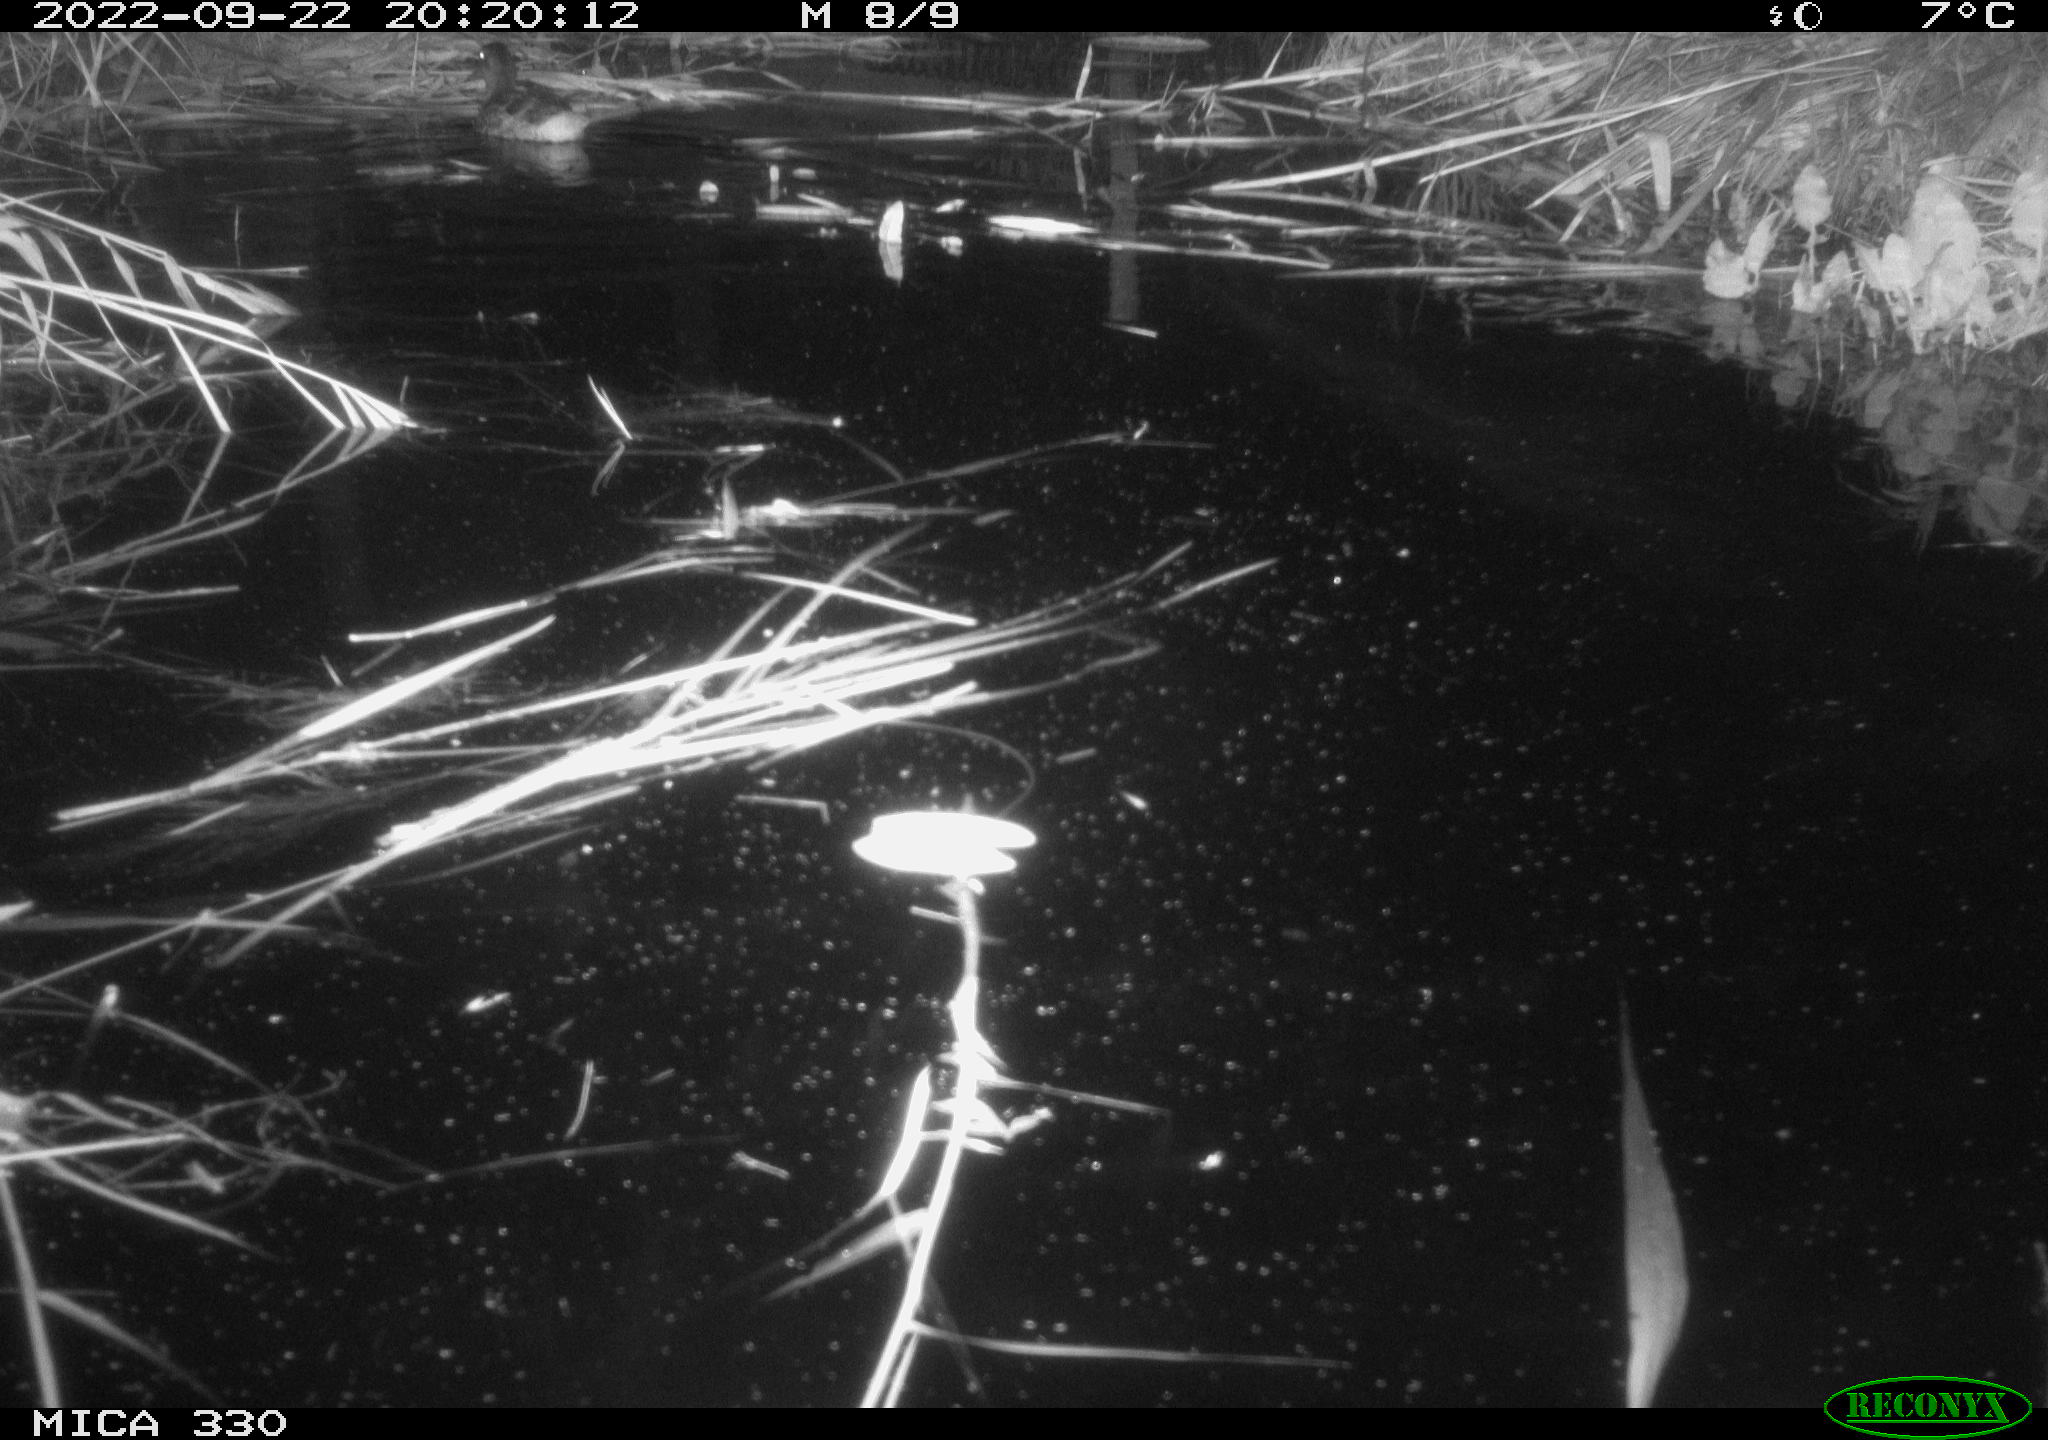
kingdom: Animalia
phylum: Chordata
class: Aves
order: Anseriformes
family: Anatidae
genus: Anas
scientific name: Anas platyrhynchos
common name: Mallard
